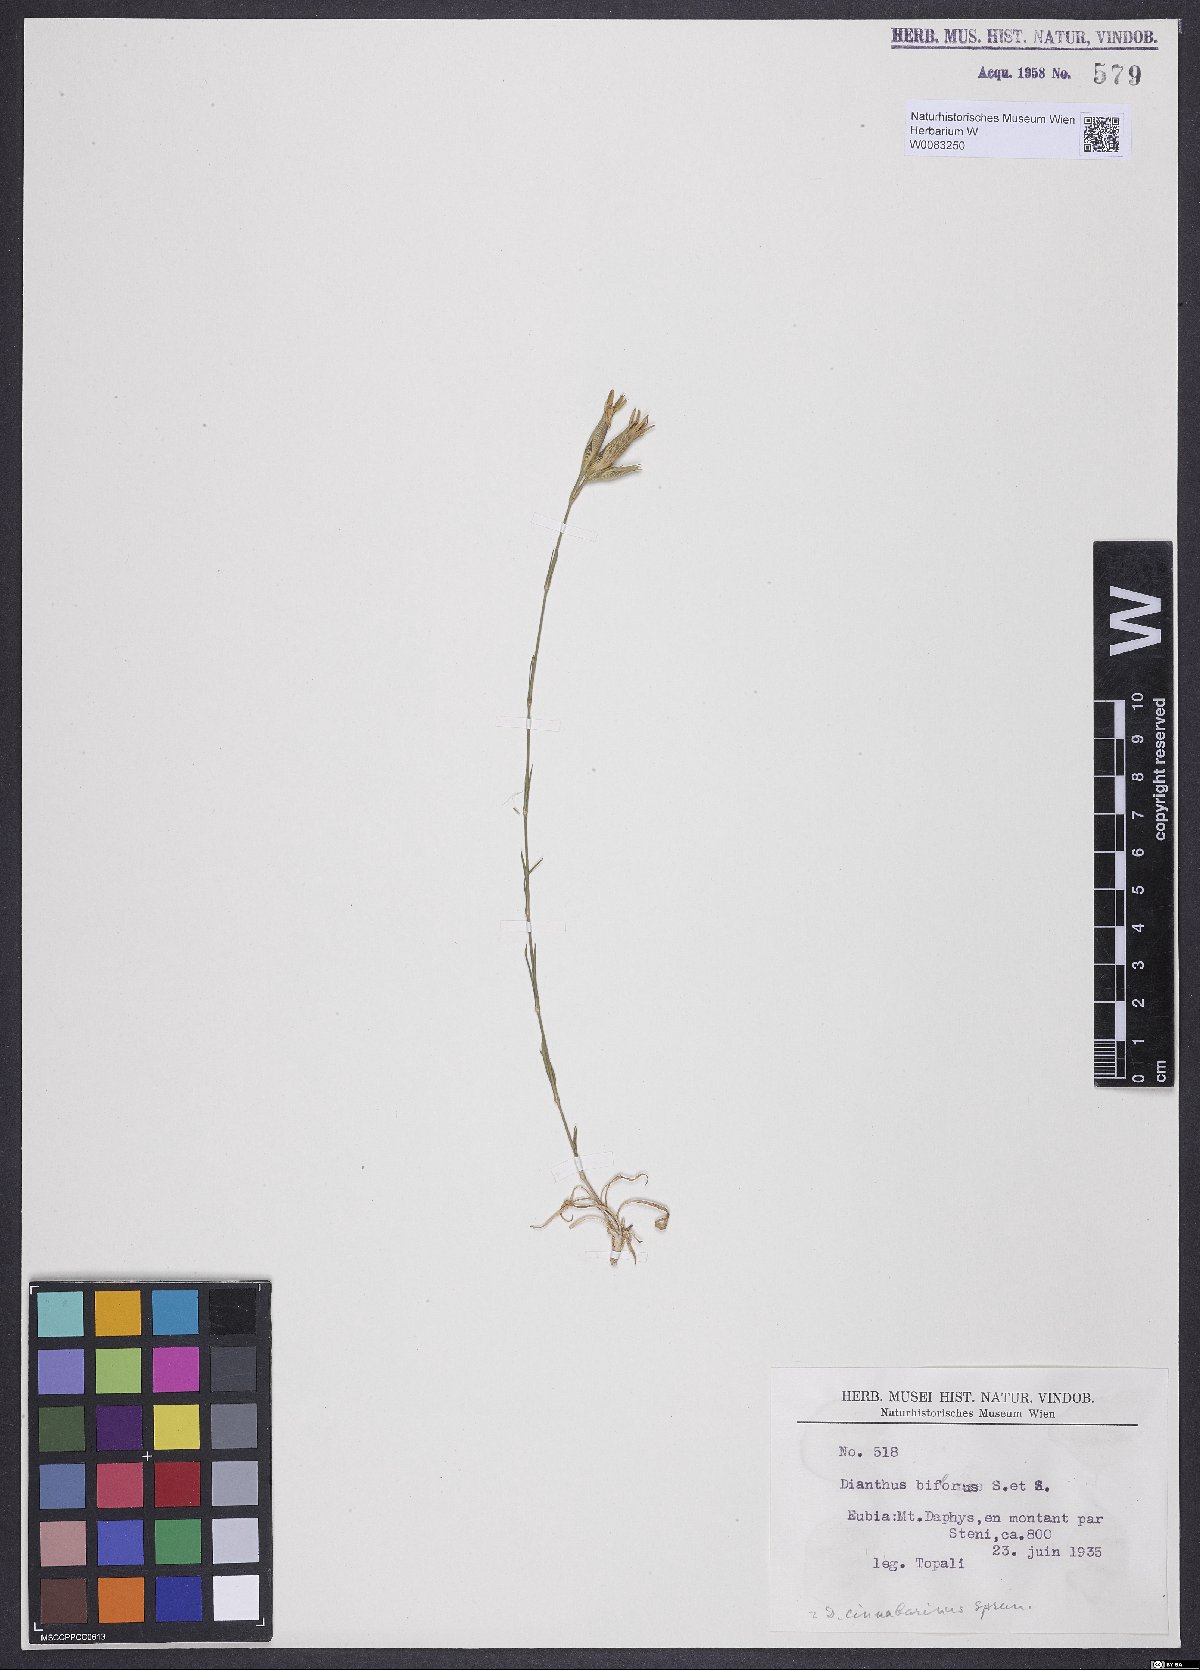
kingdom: Plantae
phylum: Tracheophyta
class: Magnoliopsida
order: Caryophyllales
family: Caryophyllaceae
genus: Dianthus
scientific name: Dianthus biflorus
